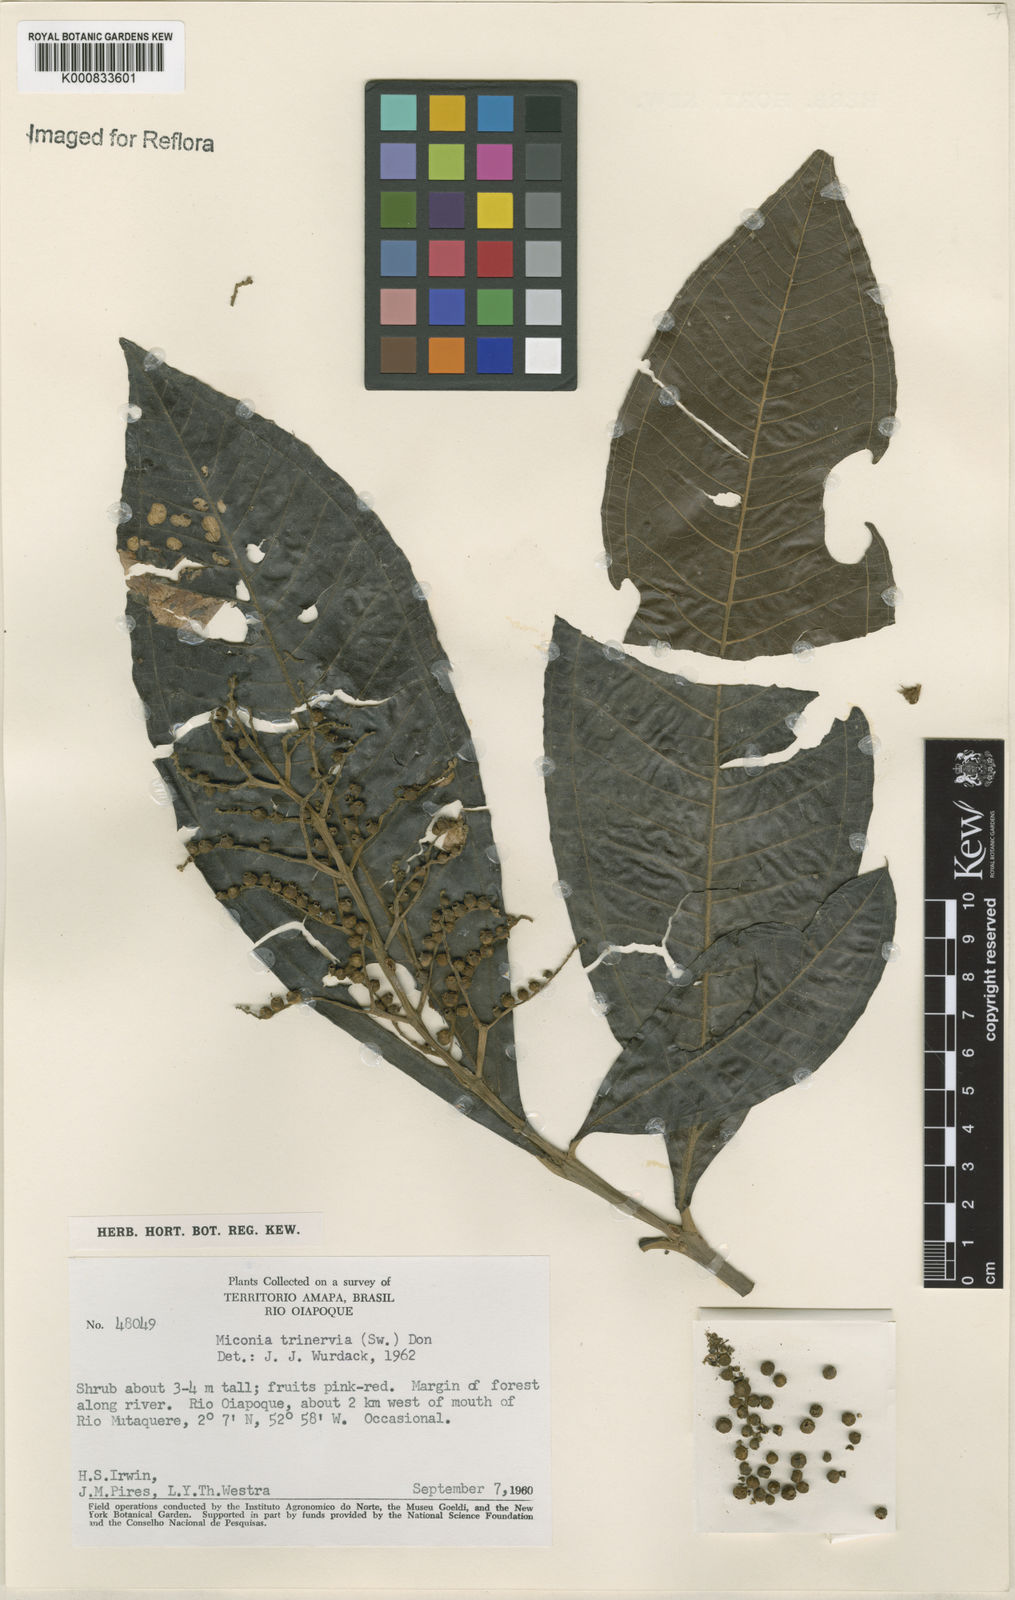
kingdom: Plantae
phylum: Tracheophyta
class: Magnoliopsida
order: Myrtales
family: Melastomataceae
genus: Miconia
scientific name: Miconia trinervia
